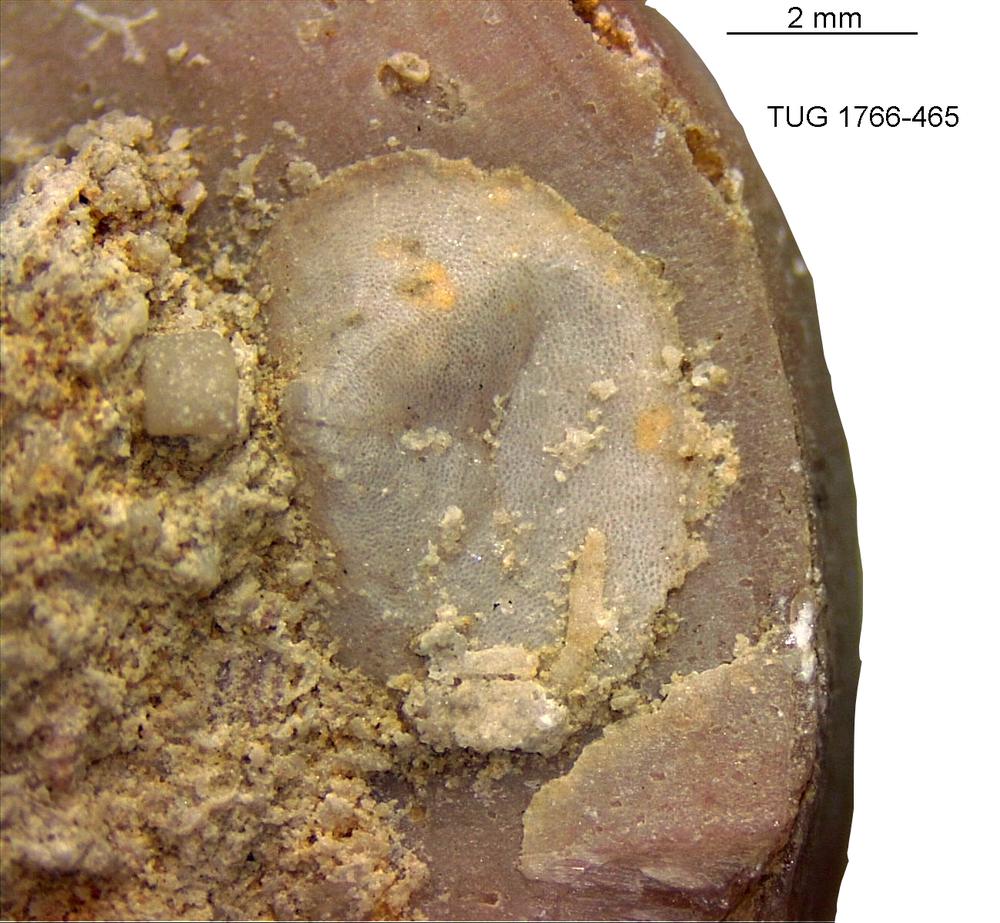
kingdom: Animalia
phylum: Brachiopoda
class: Craniata
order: Craniida
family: Craniidae
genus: Philhedra
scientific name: Philhedra
